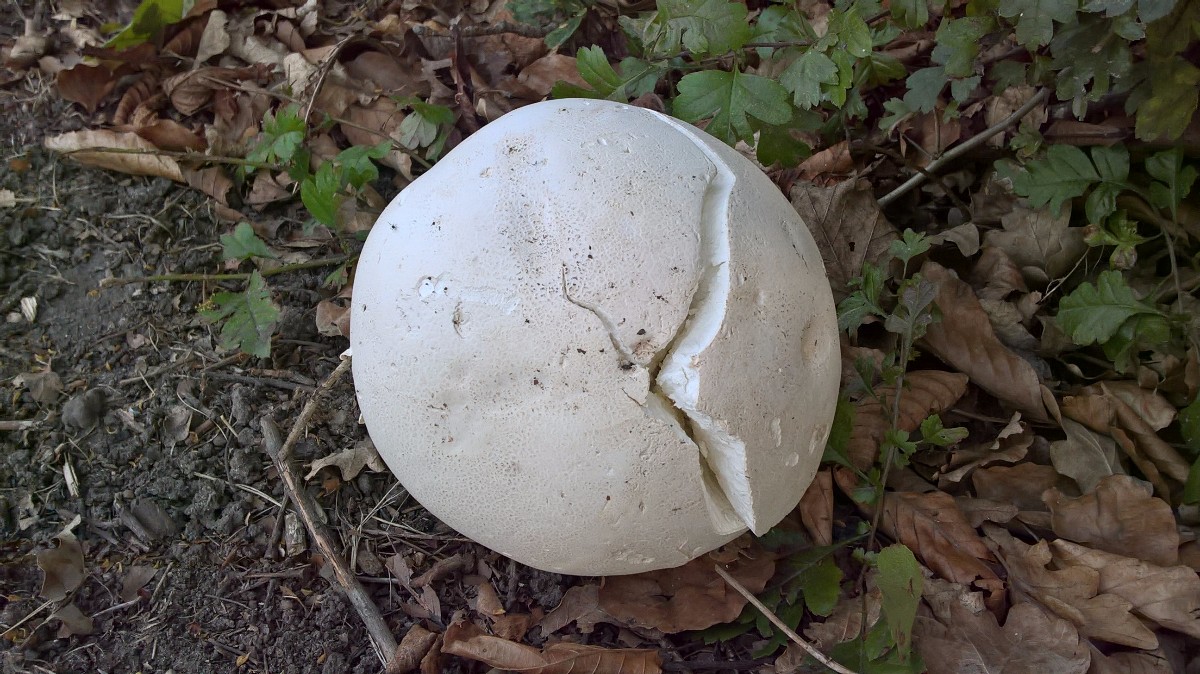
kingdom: Fungi
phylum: Basidiomycota
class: Agaricomycetes
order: Agaricales
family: Lycoperdaceae
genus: Calvatia
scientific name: Calvatia gigantea
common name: kæmpestøvbold
